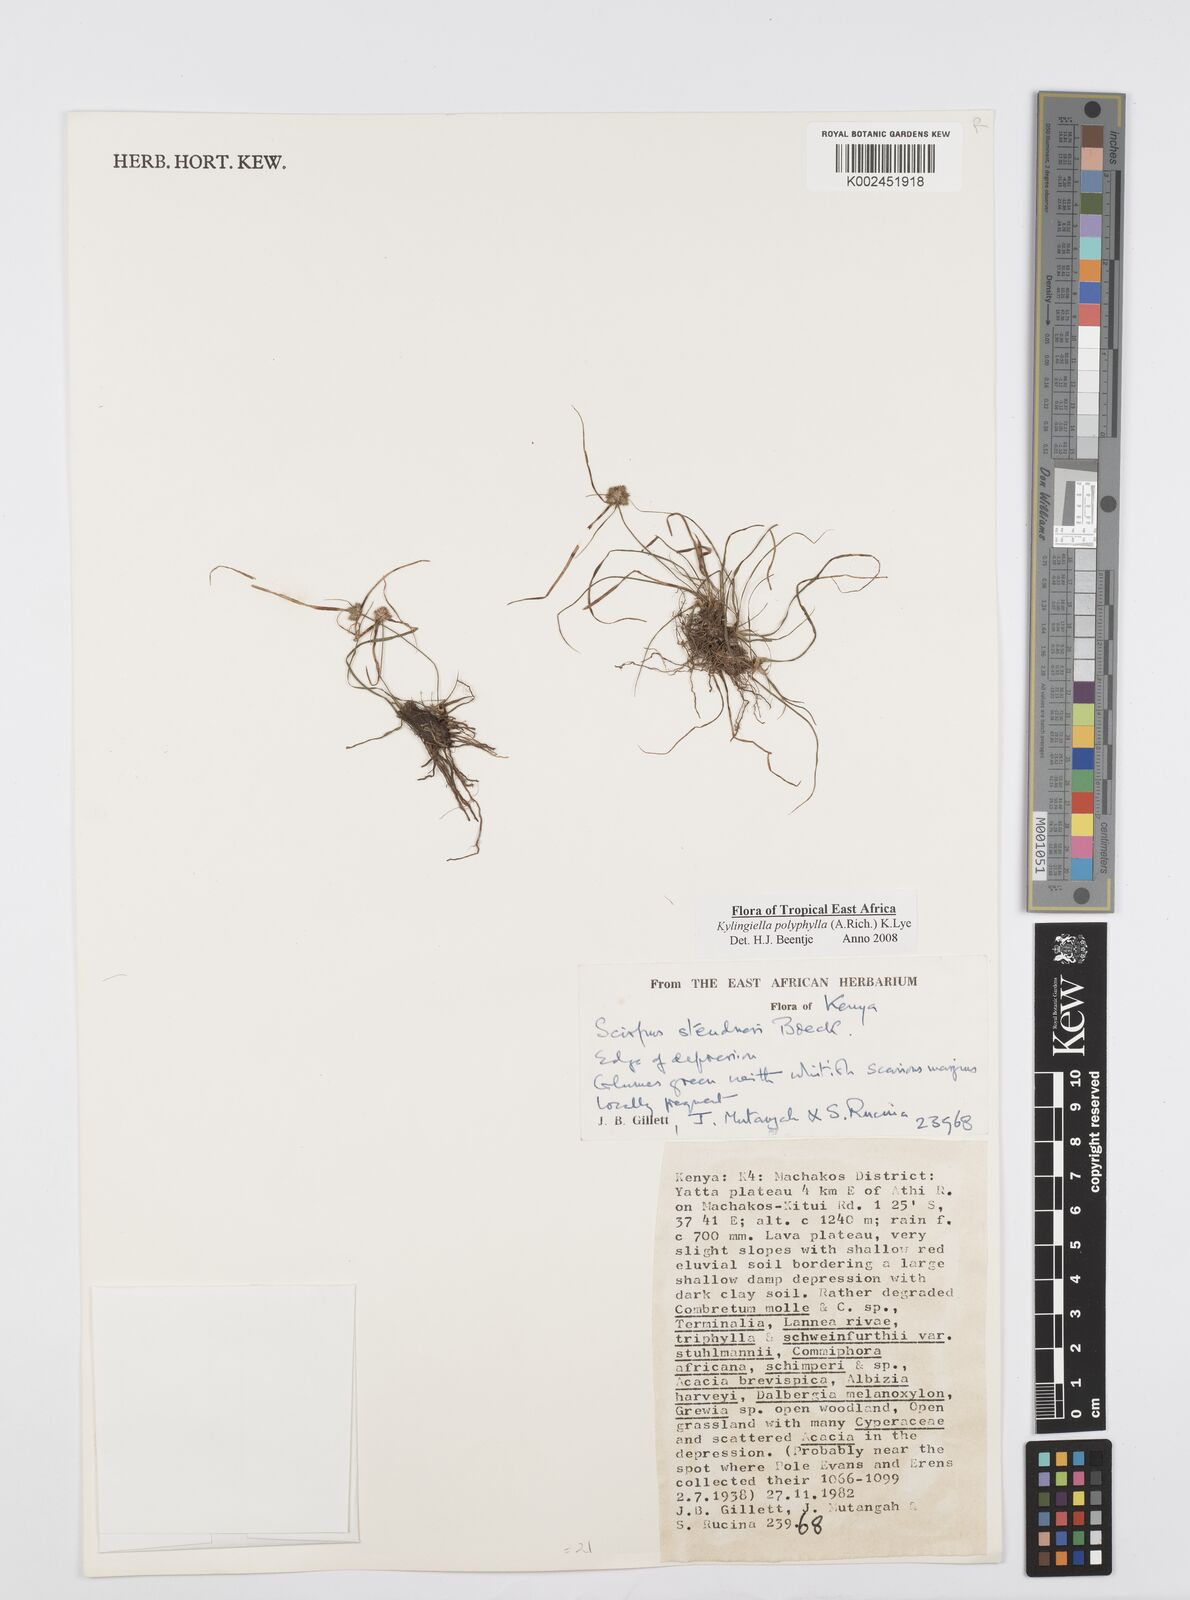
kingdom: Plantae
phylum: Tracheophyta
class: Liliopsida
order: Poales
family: Cyperaceae
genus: Cyperus
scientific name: Cyperus bulbosus
